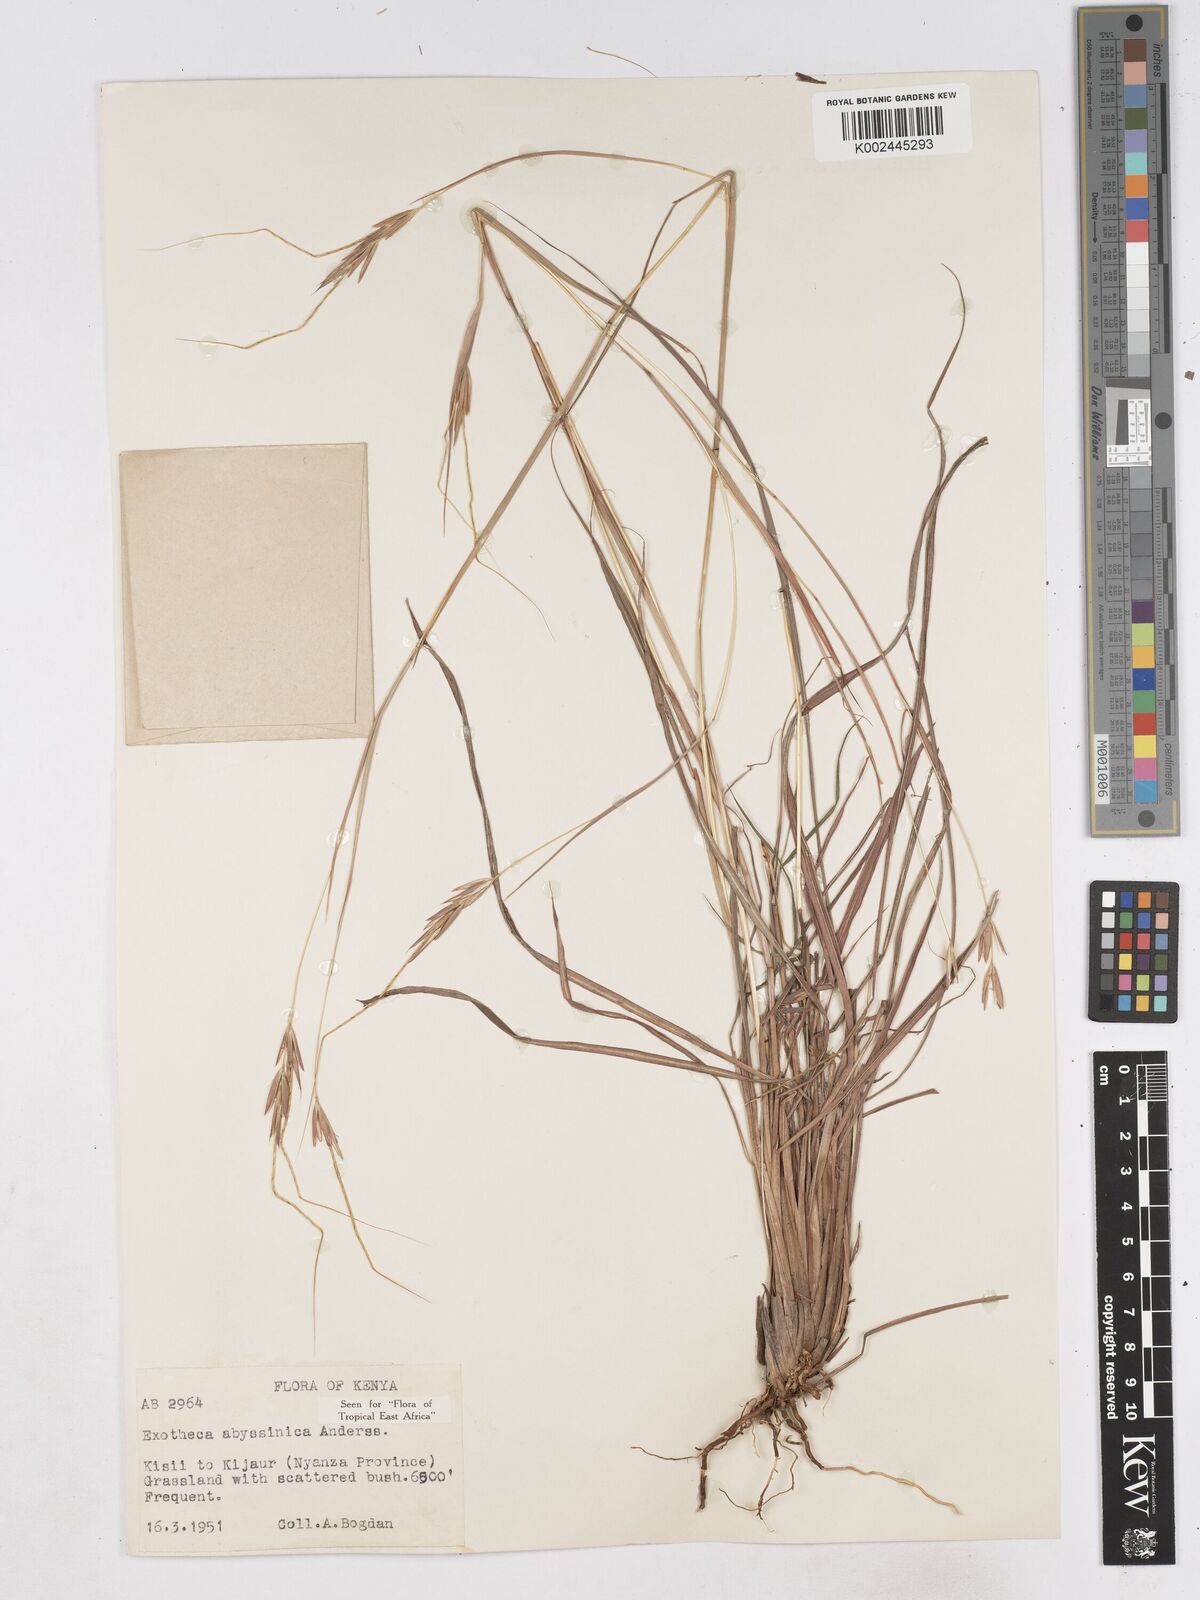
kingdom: Plantae
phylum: Tracheophyta
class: Liliopsida
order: Poales
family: Poaceae
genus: Exotheca
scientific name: Exotheca abyssinica
